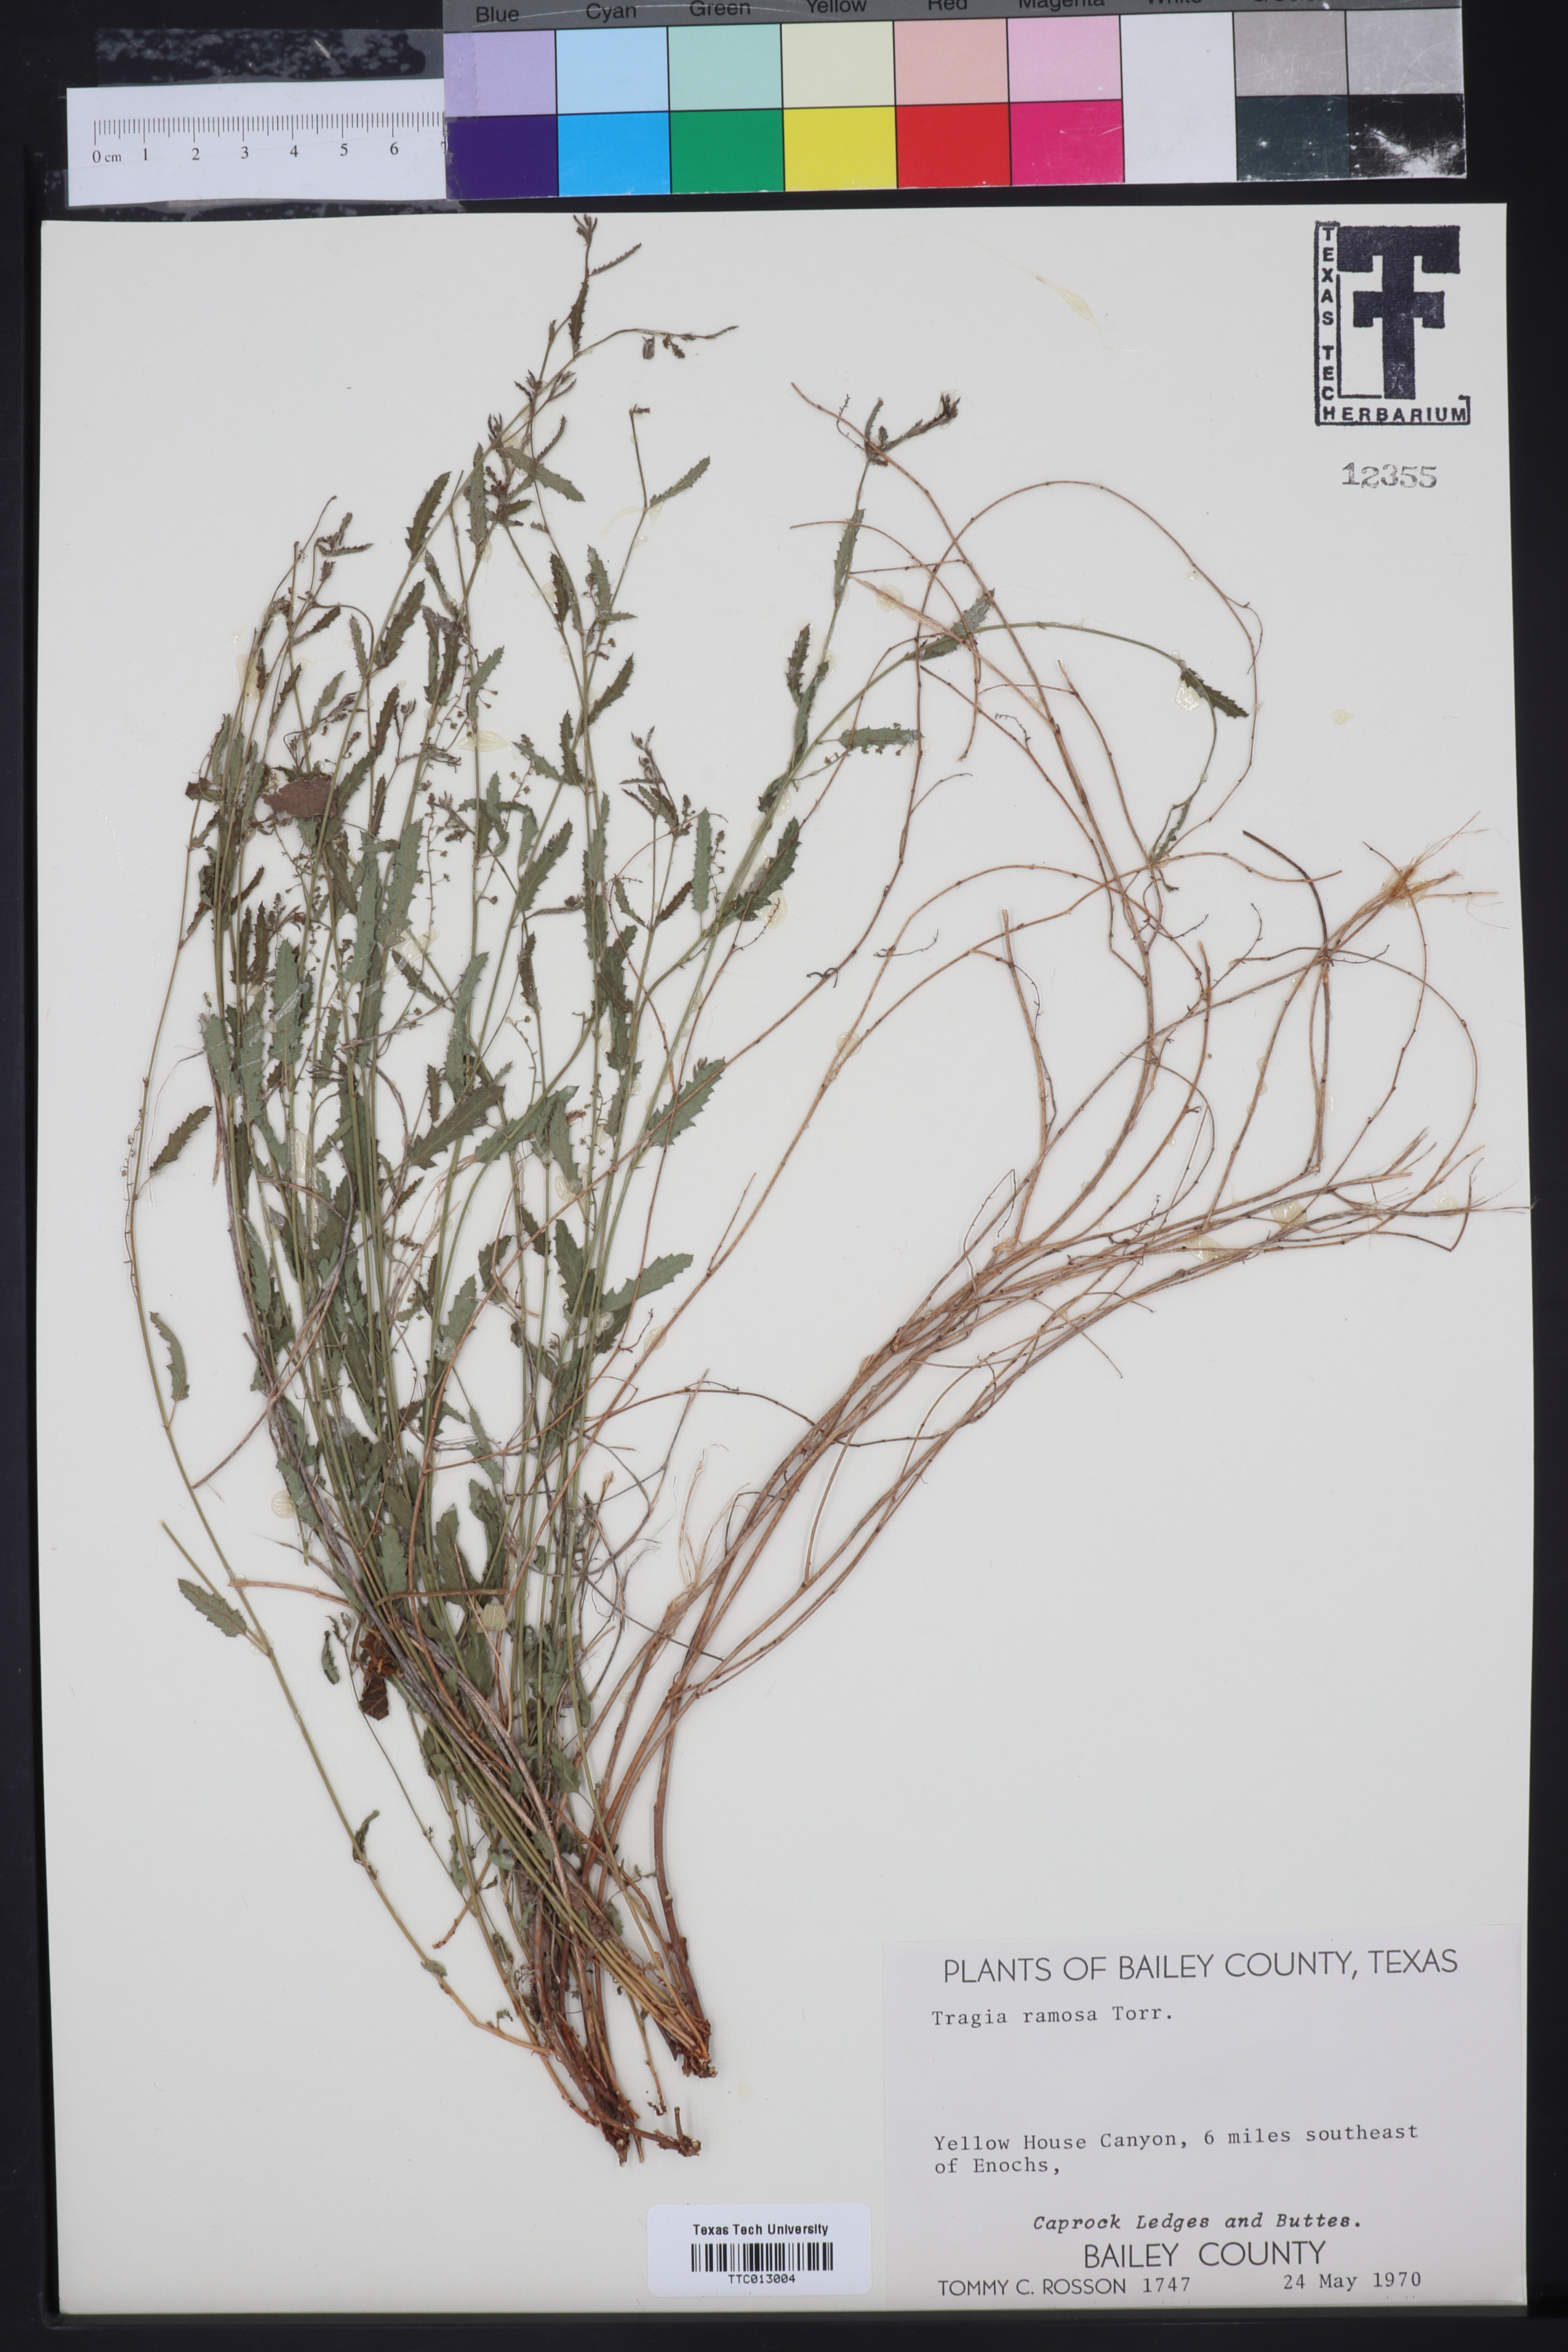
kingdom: Plantae
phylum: Tracheophyta
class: Magnoliopsida
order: Malpighiales
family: Euphorbiaceae
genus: Tragia
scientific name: Tragia ramosa
